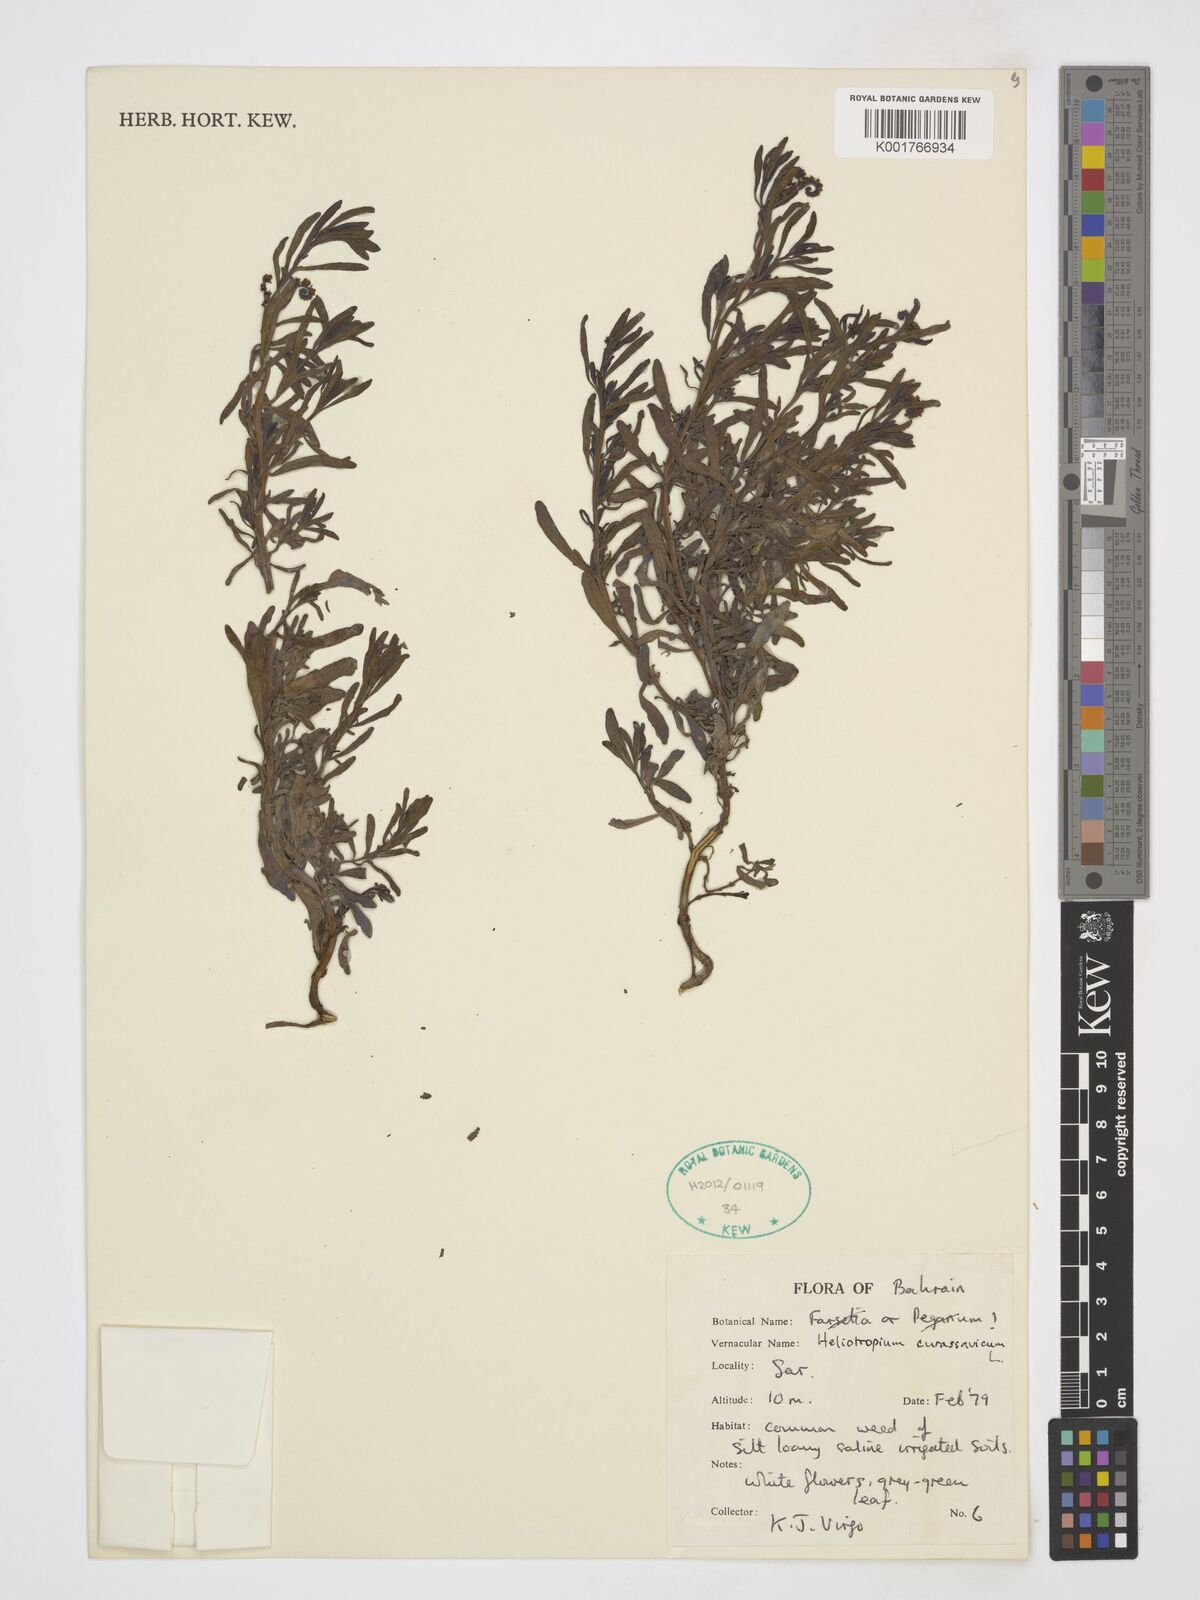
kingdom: Plantae
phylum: Tracheophyta
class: Magnoliopsida
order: Boraginales
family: Heliotropiaceae
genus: Heliotropium
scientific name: Heliotropium curassavicum
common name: Seaside heliotrope
